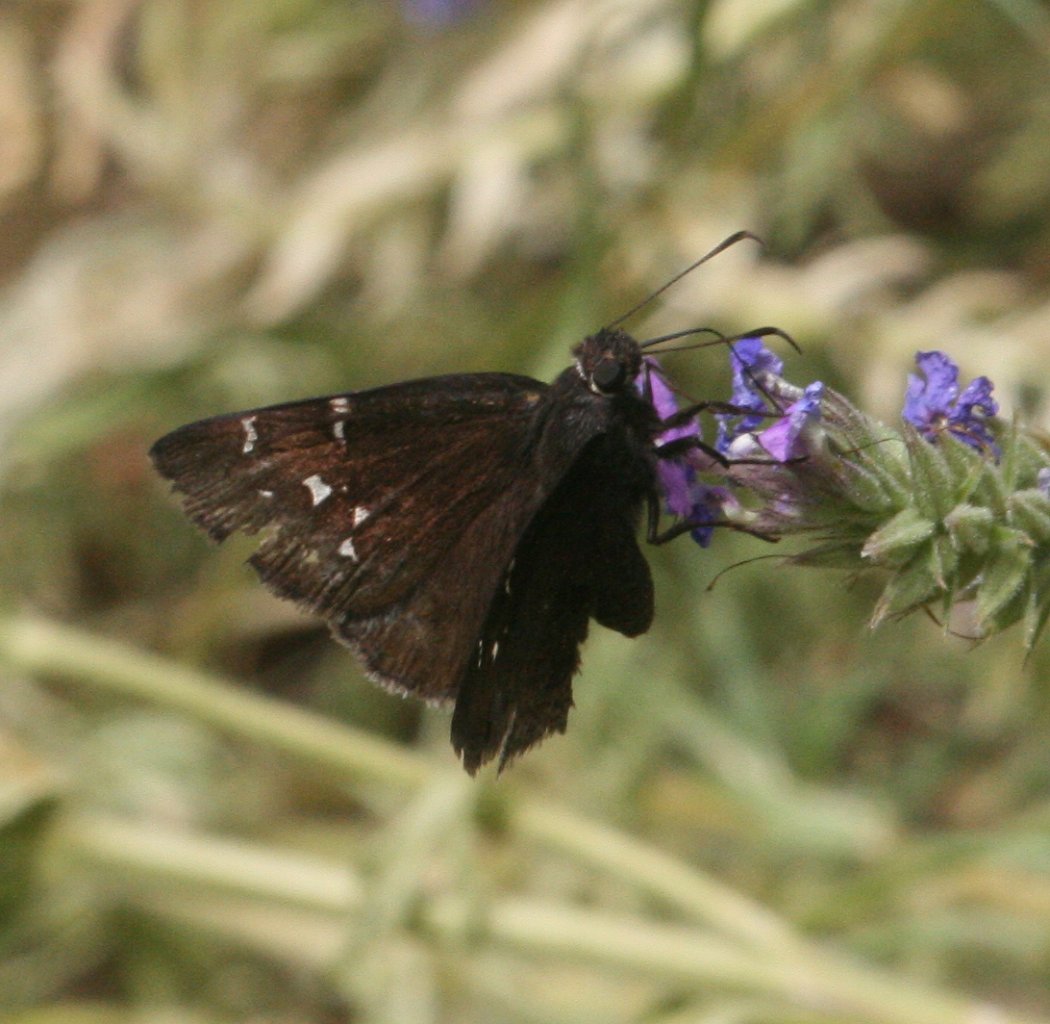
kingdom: Animalia
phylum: Arthropoda
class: Insecta
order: Lepidoptera
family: Hesperiidae
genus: Autochton
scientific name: Autochton
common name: Northern Cloudywing
